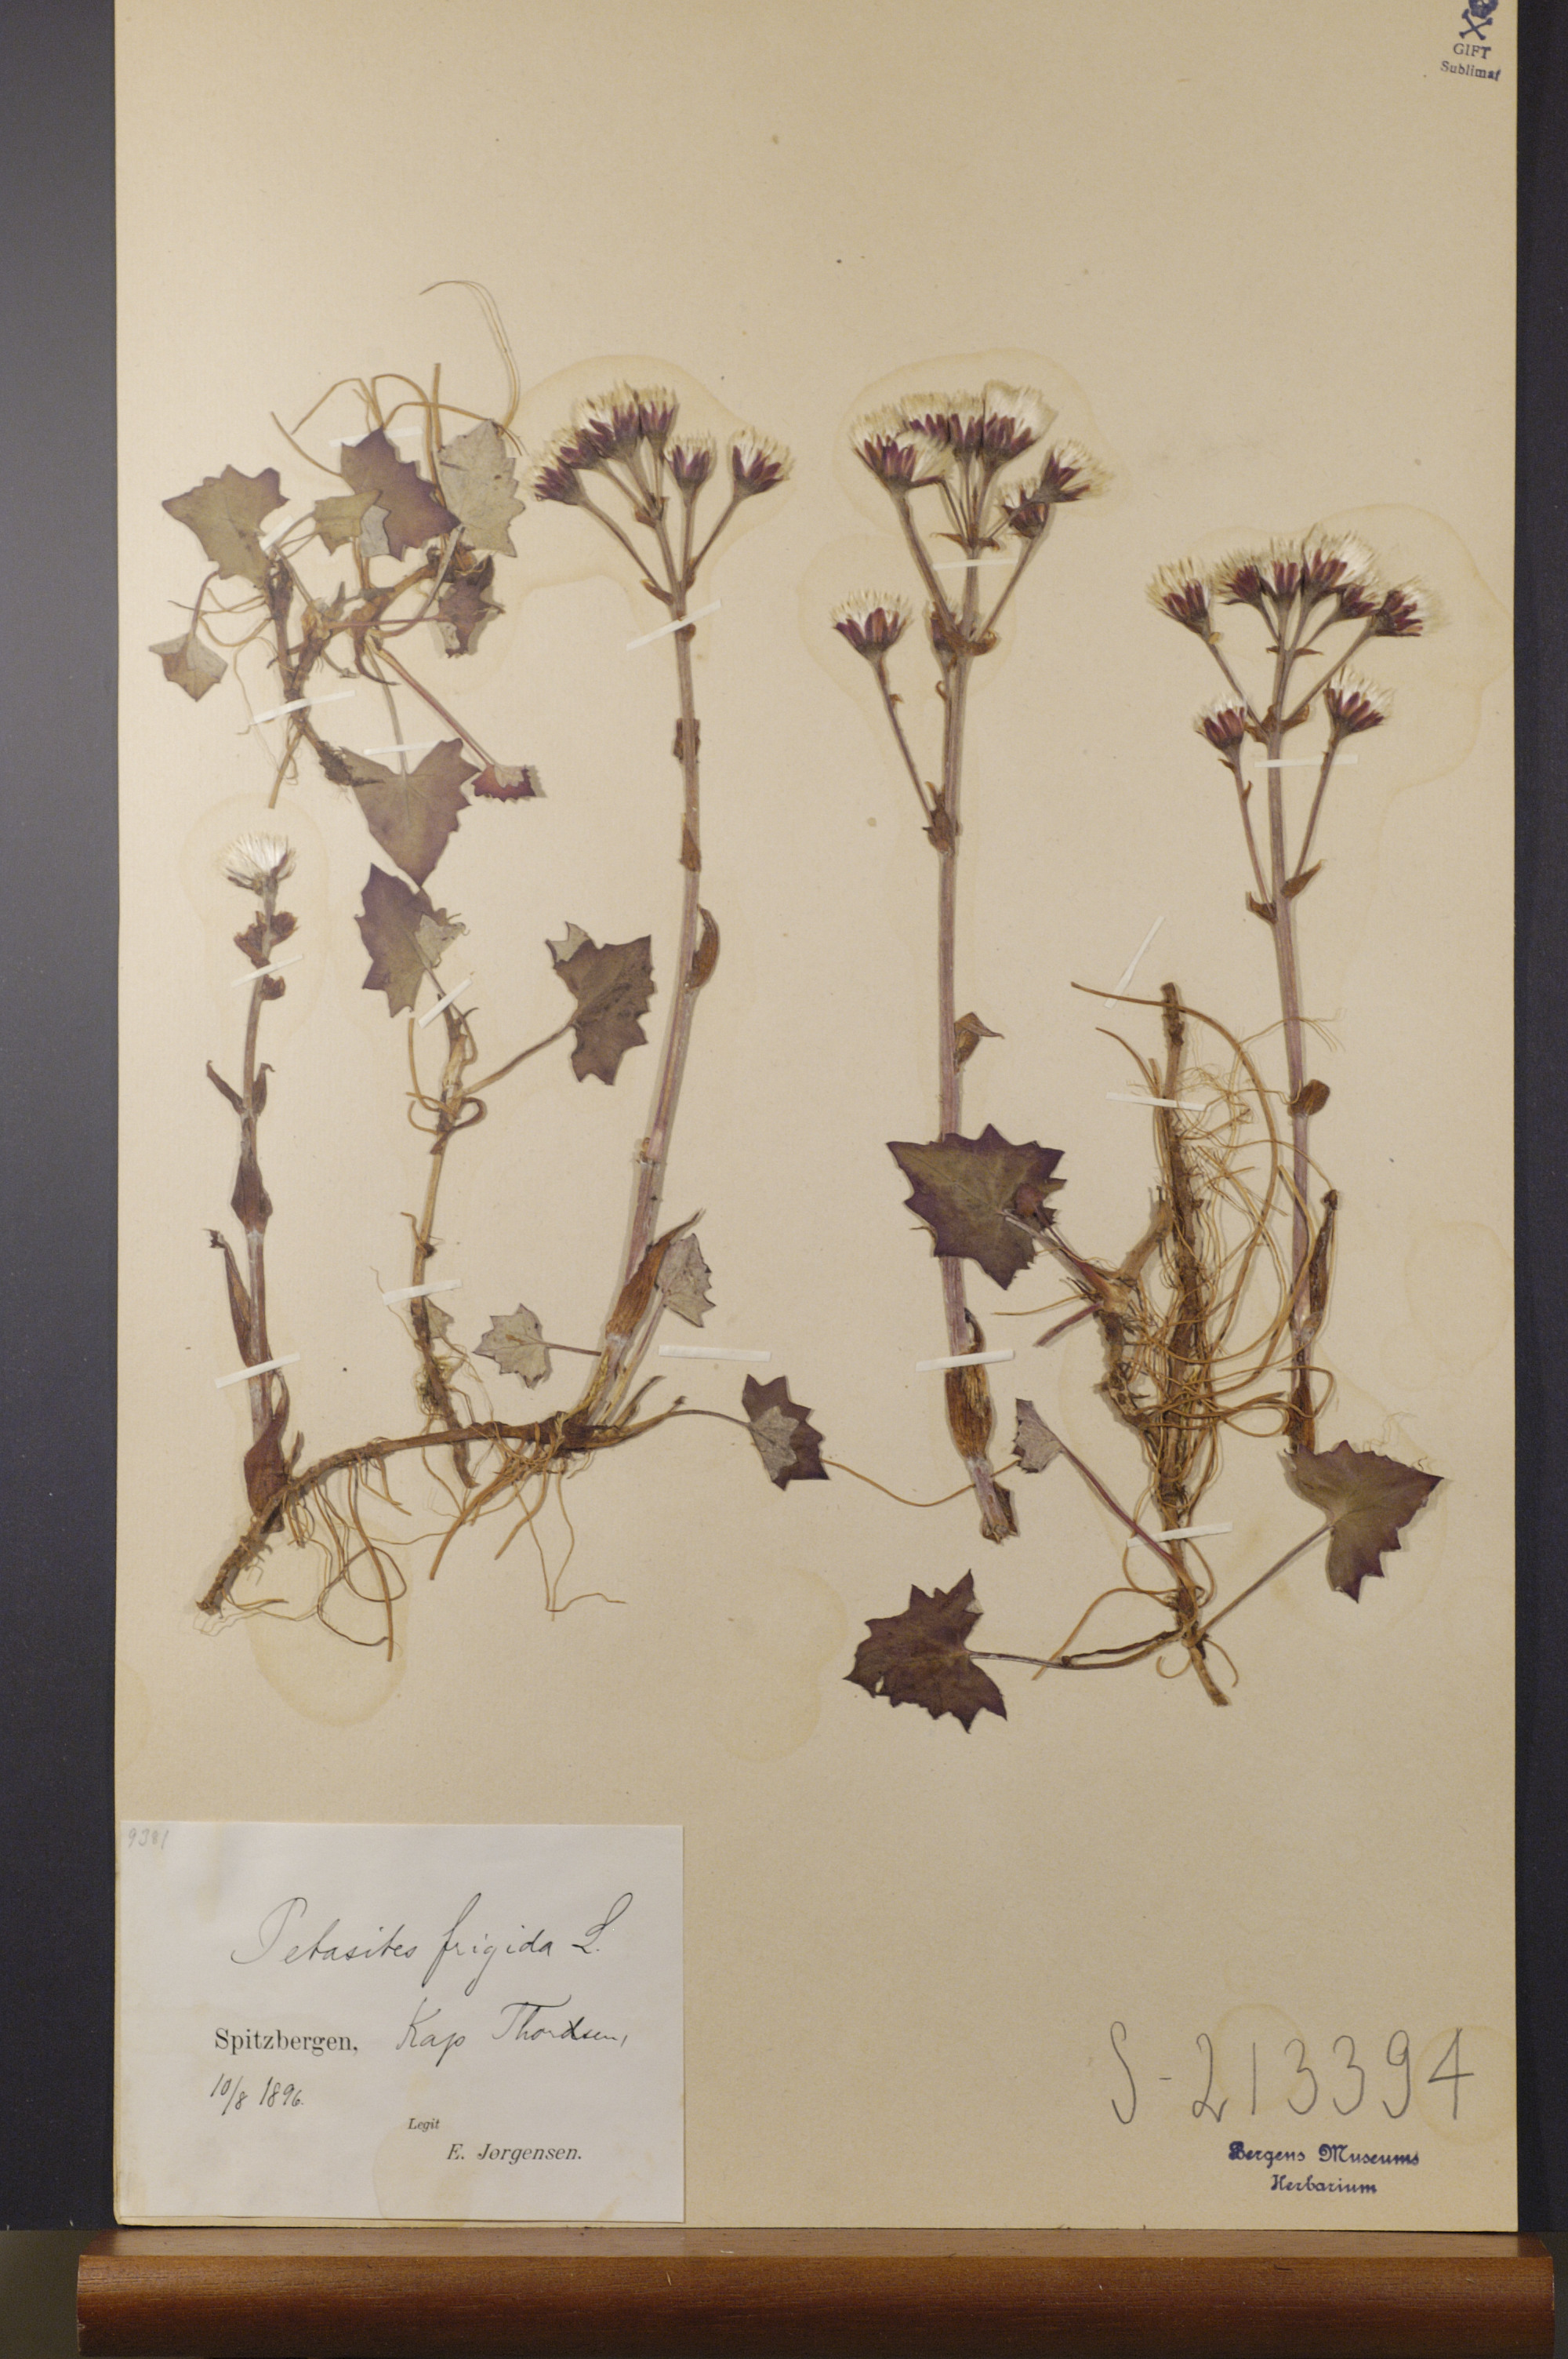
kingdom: Plantae
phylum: Tracheophyta
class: Magnoliopsida
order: Asterales
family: Asteraceae
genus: Petasites
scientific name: Petasites frigidus
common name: Arctic butterbur
